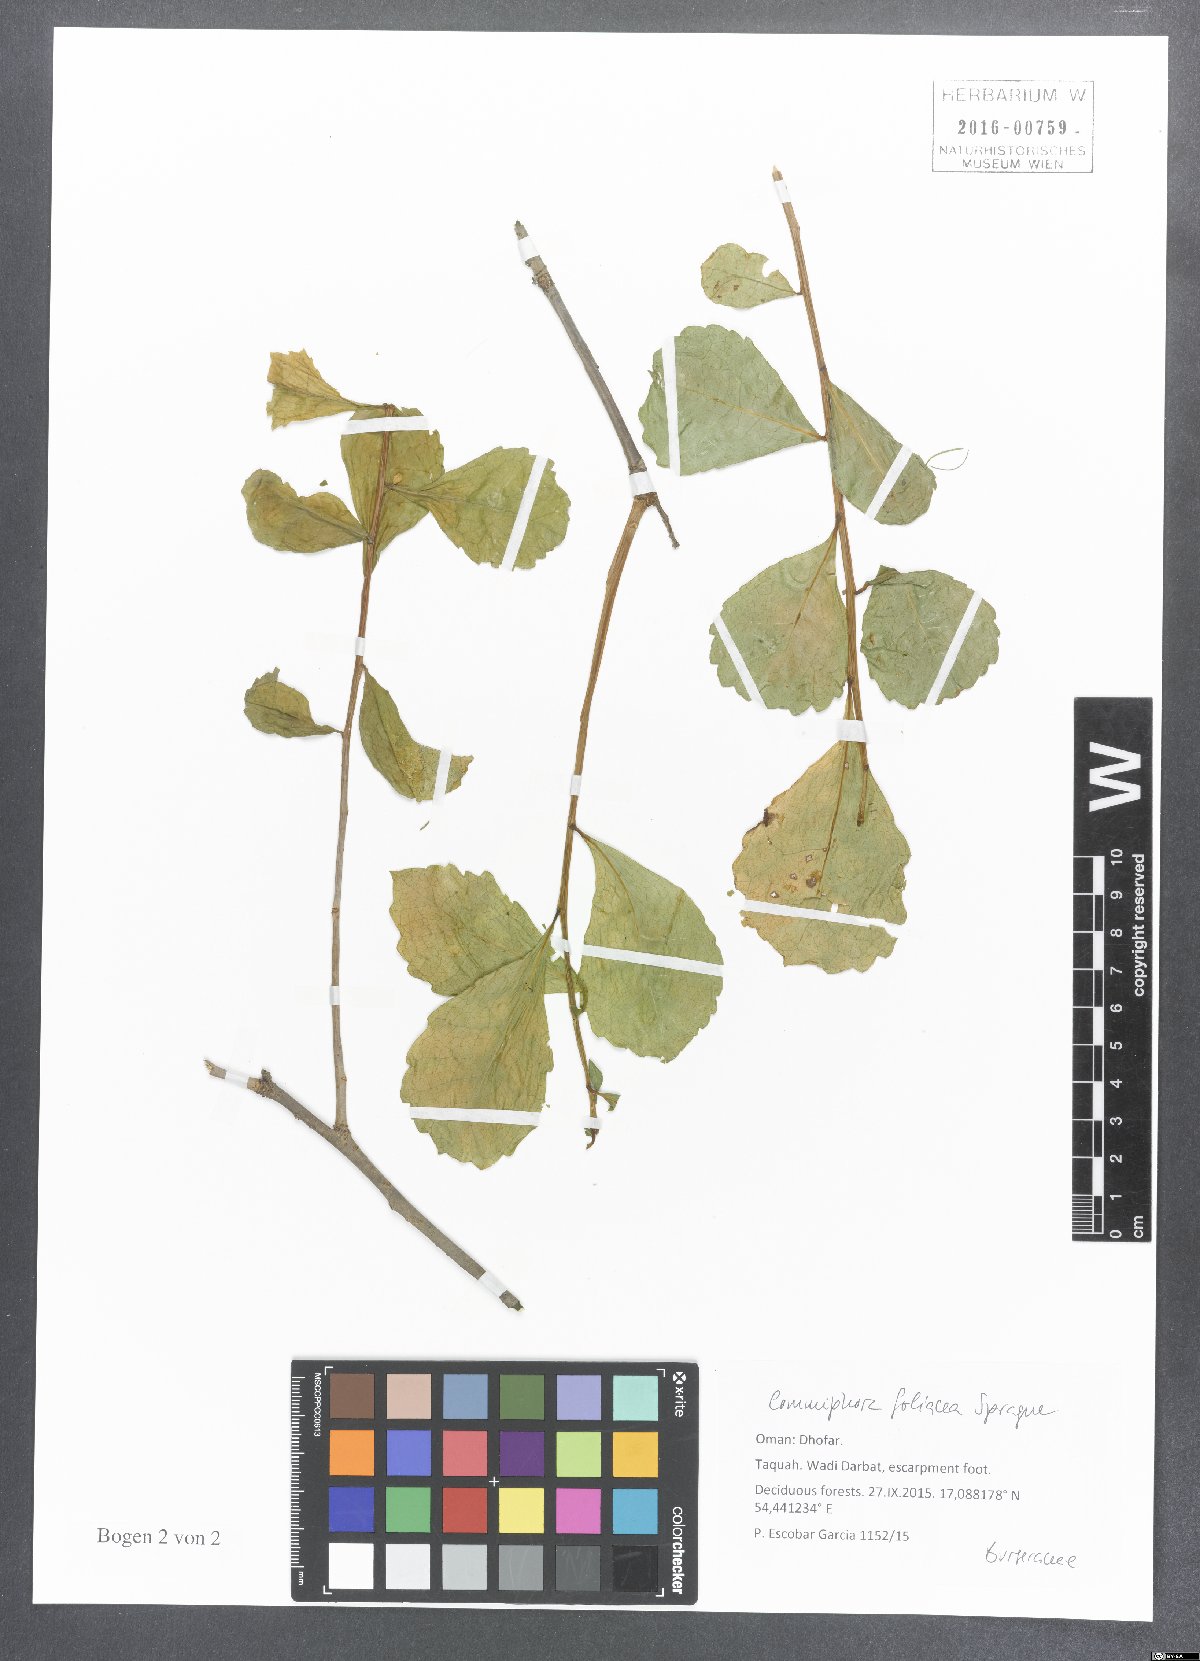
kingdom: Plantae
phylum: Tracheophyta
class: Magnoliopsida
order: Sapindales
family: Burseraceae
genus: Commiphora
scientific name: Commiphora foliacea
